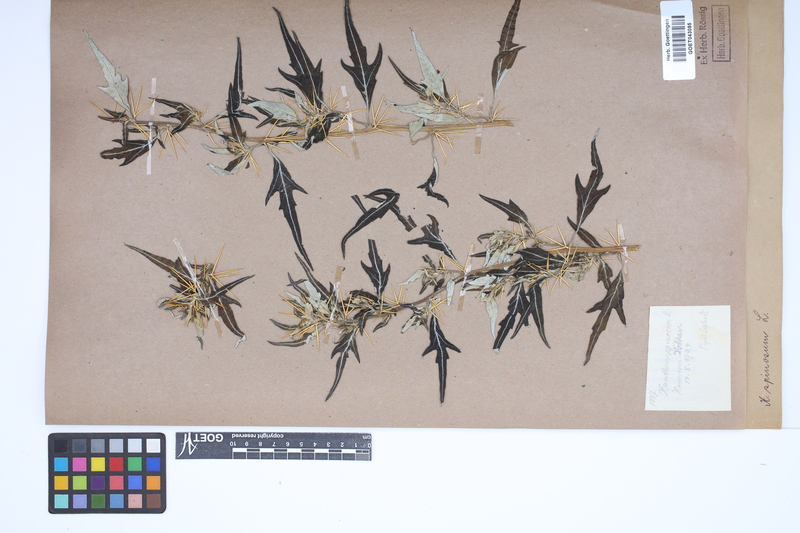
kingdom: Plantae
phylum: Tracheophyta
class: Magnoliopsida
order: Asterales
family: Asteraceae
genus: Xanthium
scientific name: Xanthium spinosum
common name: Spiny cocklebur
